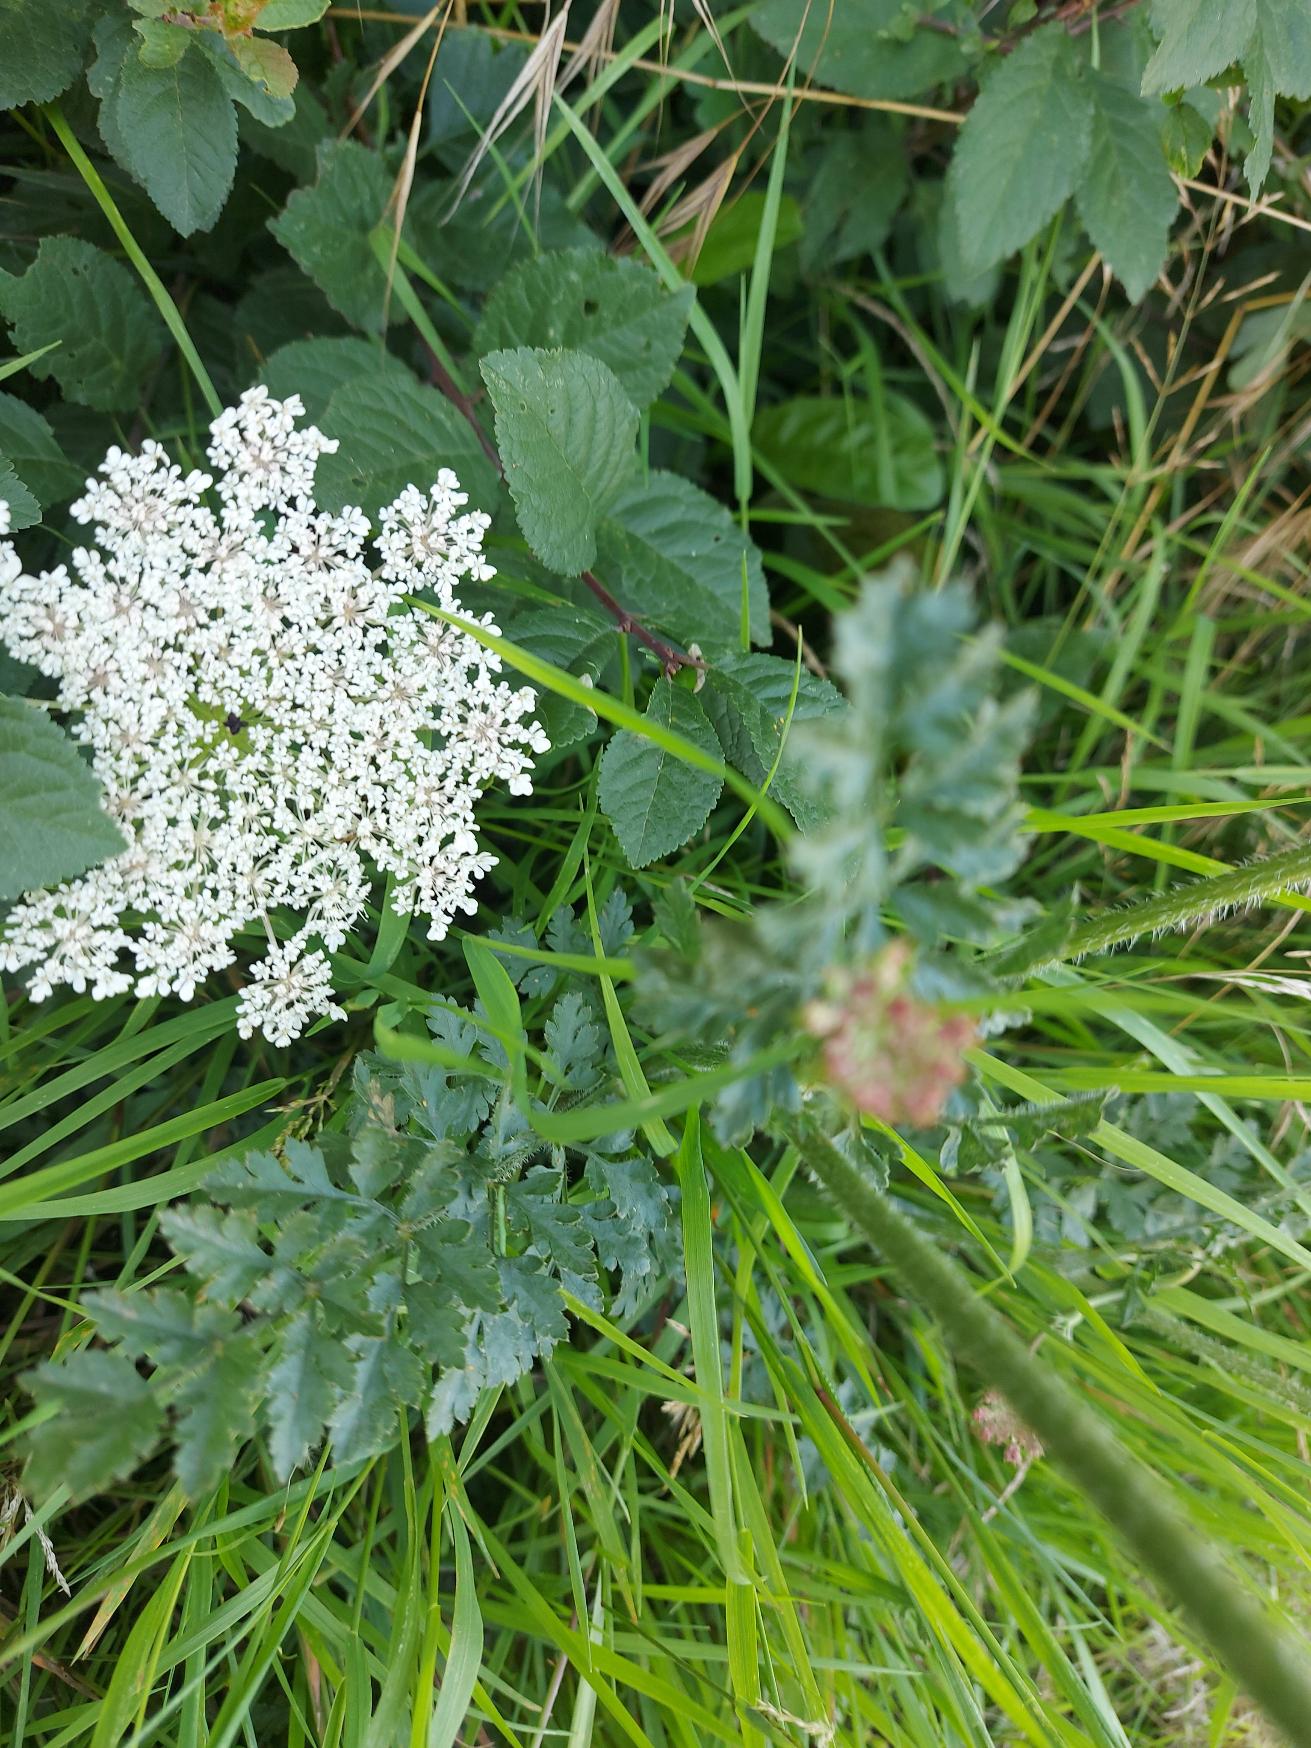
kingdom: Plantae
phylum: Tracheophyta
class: Magnoliopsida
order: Apiales
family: Apiaceae
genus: Daucus
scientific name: Daucus carota
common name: Gulerod
